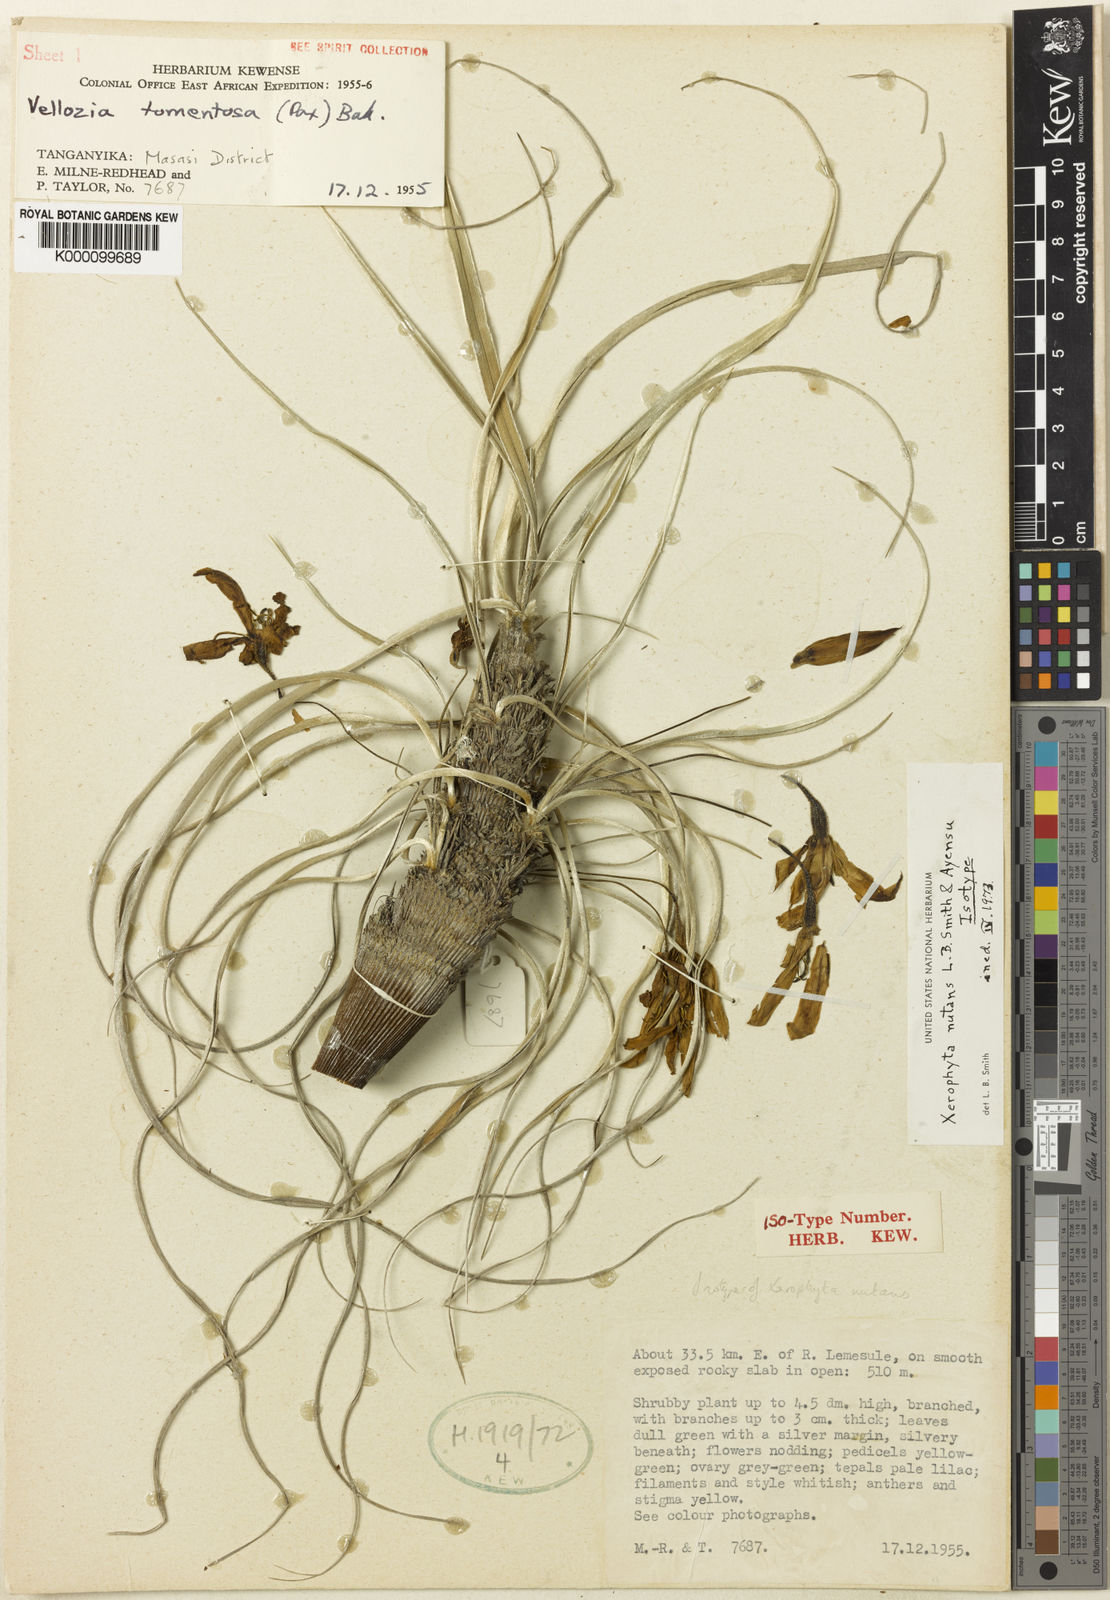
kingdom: Plantae
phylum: Tracheophyta
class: Liliopsida
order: Pandanales
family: Velloziaceae
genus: Xerophyta
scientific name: Xerophyta nutans
